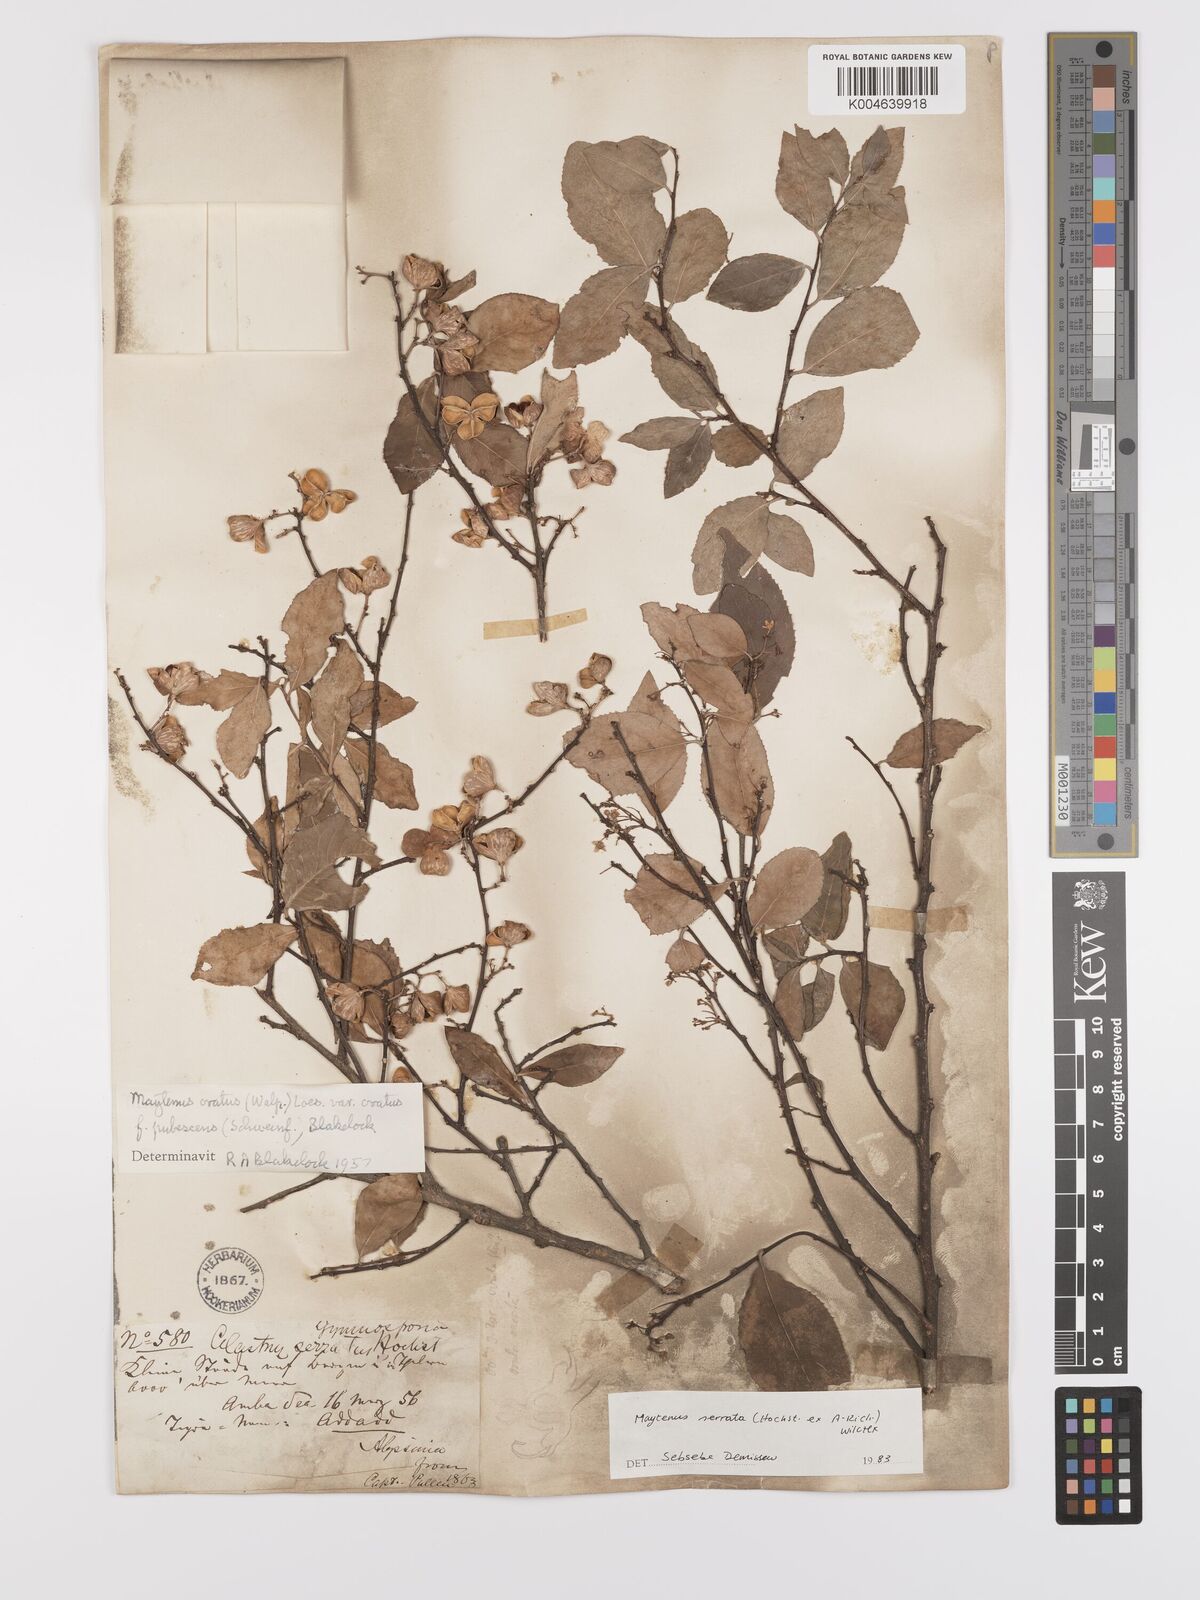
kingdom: Plantae
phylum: Tracheophyta
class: Magnoliopsida
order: Celastrales
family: Celastraceae
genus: Gymnosporia
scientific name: Gymnosporia serrata
